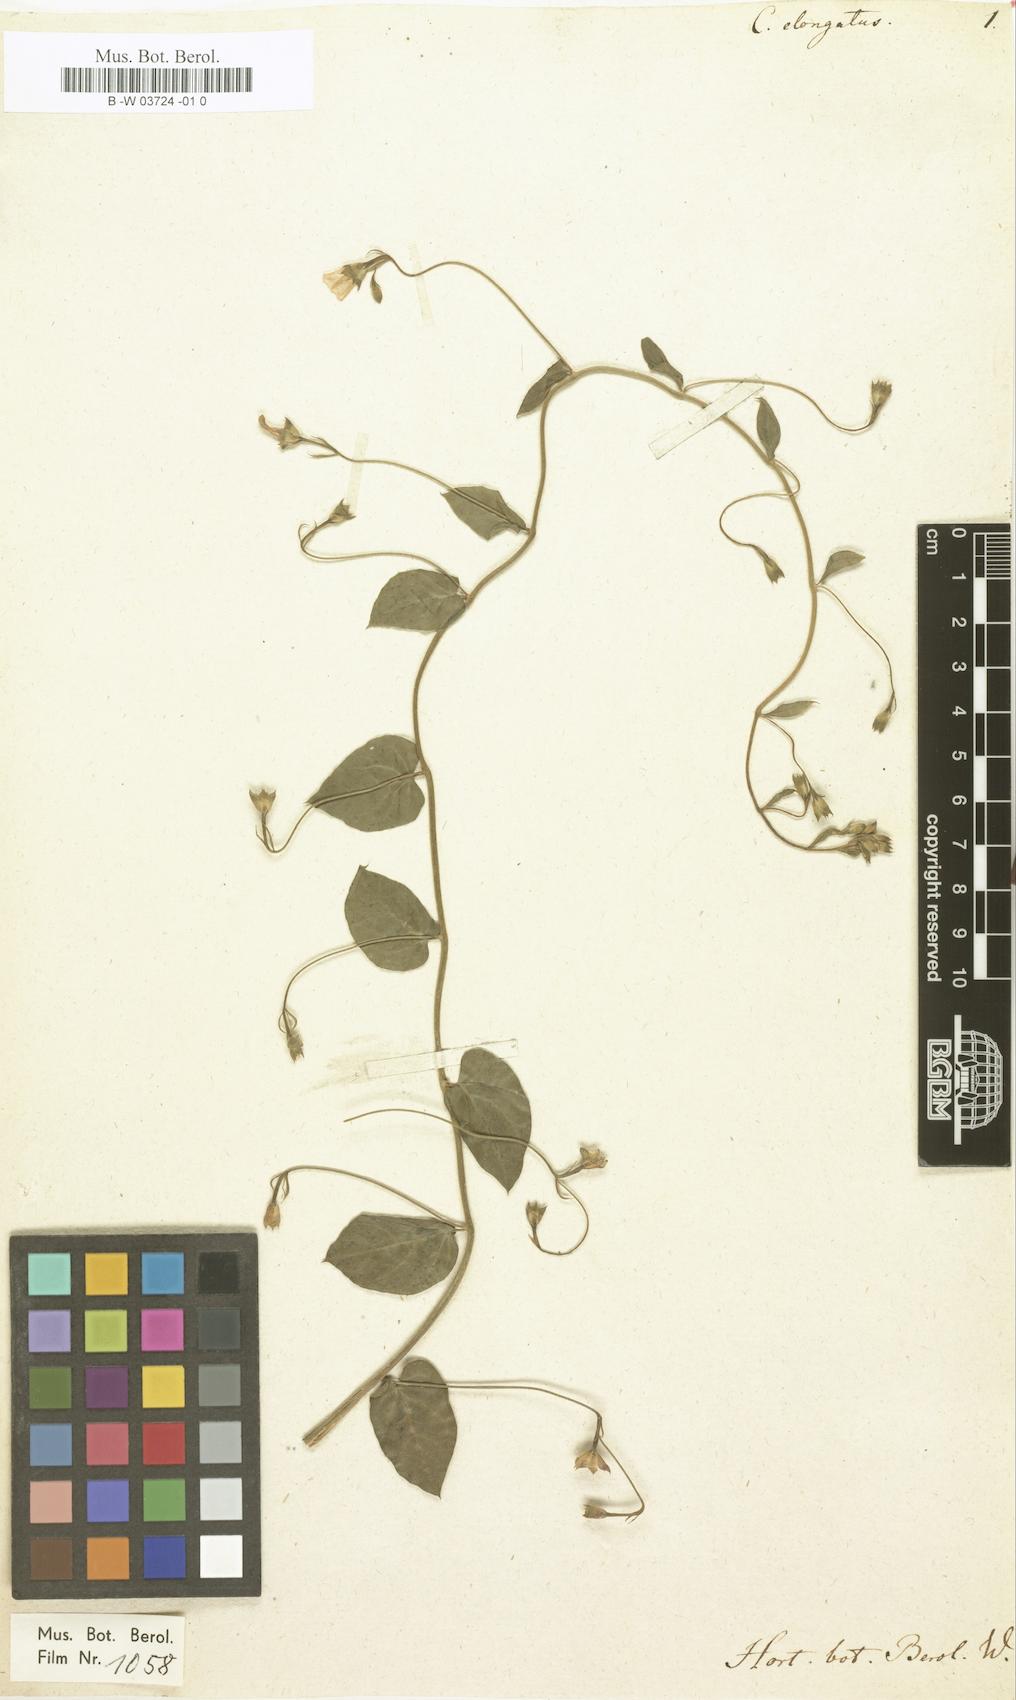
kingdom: Plantae
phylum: Tracheophyta
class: Magnoliopsida
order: Solanales
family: Convolvulaceae
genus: Convolvulus
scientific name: Convolvulus
